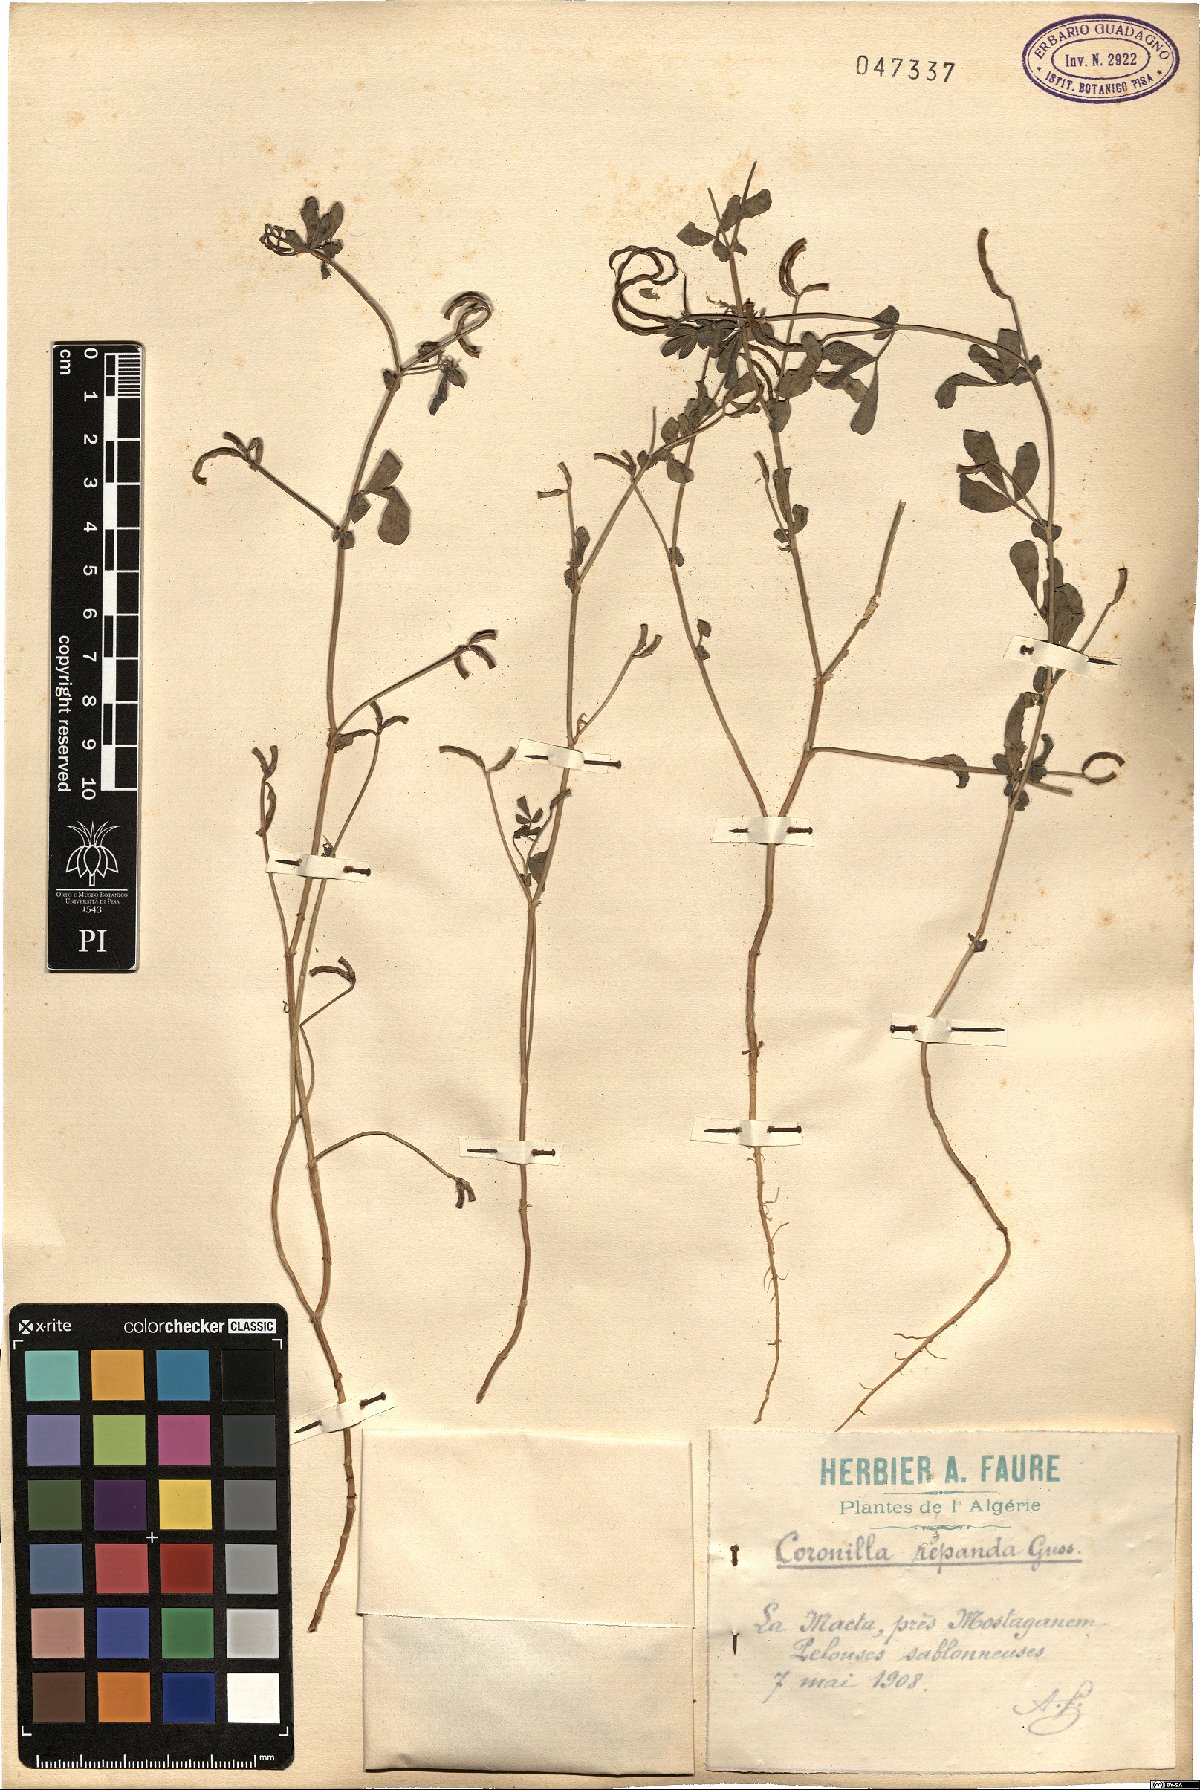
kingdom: Plantae
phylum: Tracheophyta
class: Magnoliopsida
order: Fabales
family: Fabaceae
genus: Coronilla
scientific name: Coronilla repanda
